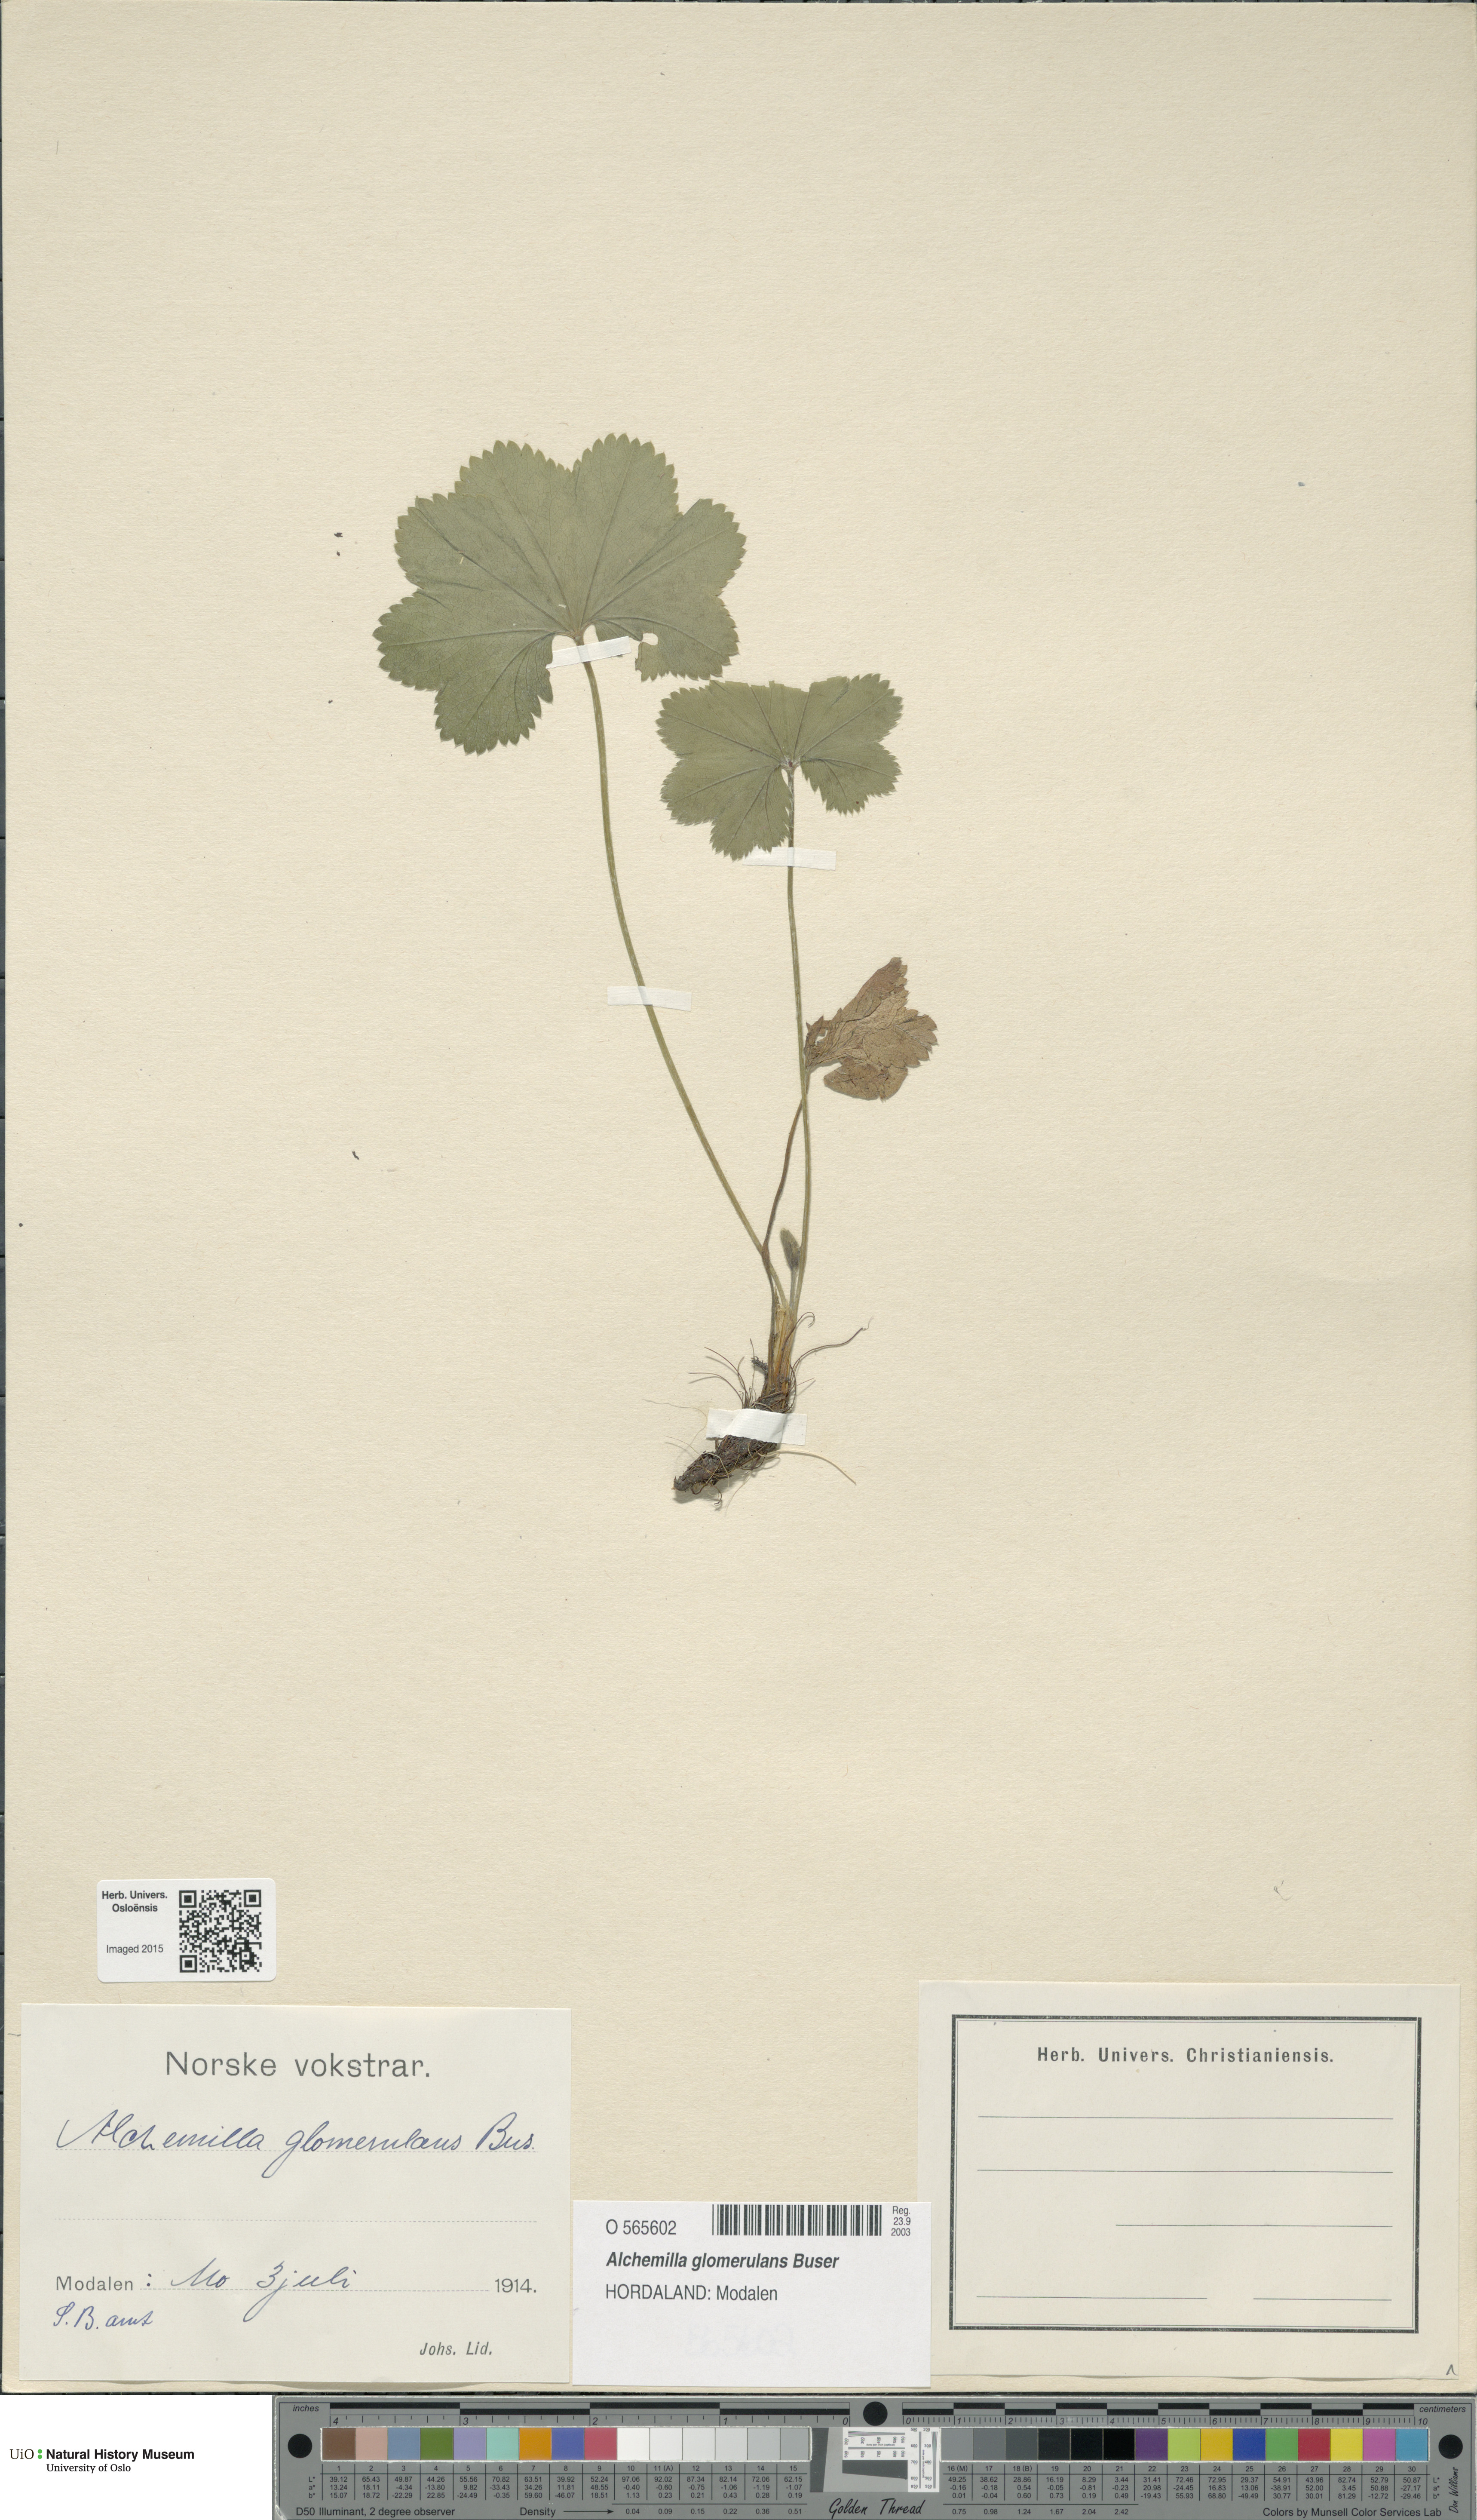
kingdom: Plantae
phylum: Tracheophyta
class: Magnoliopsida
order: Rosales
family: Rosaceae
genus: Alchemilla
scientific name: Alchemilla glomerulans
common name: Clustered lady's mantle
